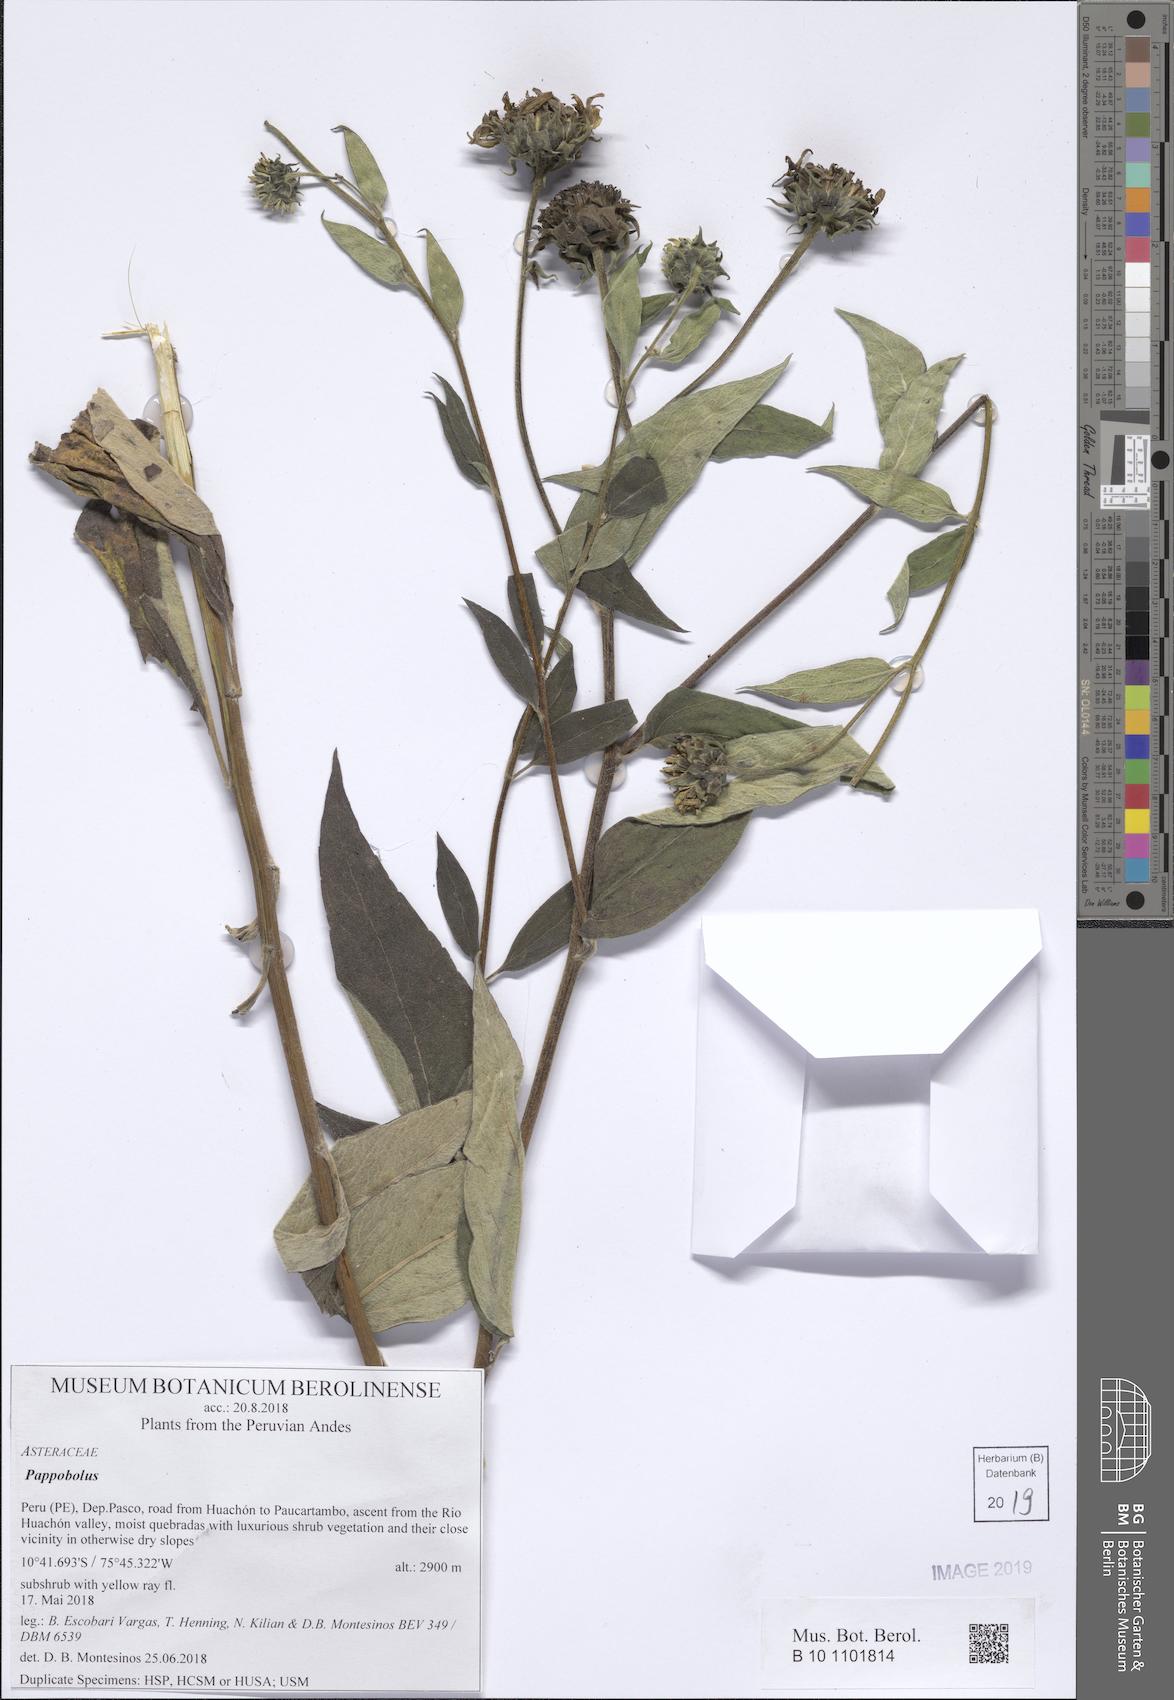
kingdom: Plantae
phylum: Tracheophyta
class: Magnoliopsida
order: Asterales
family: Asteraceae
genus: Pappobolus
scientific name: Pappobolus
